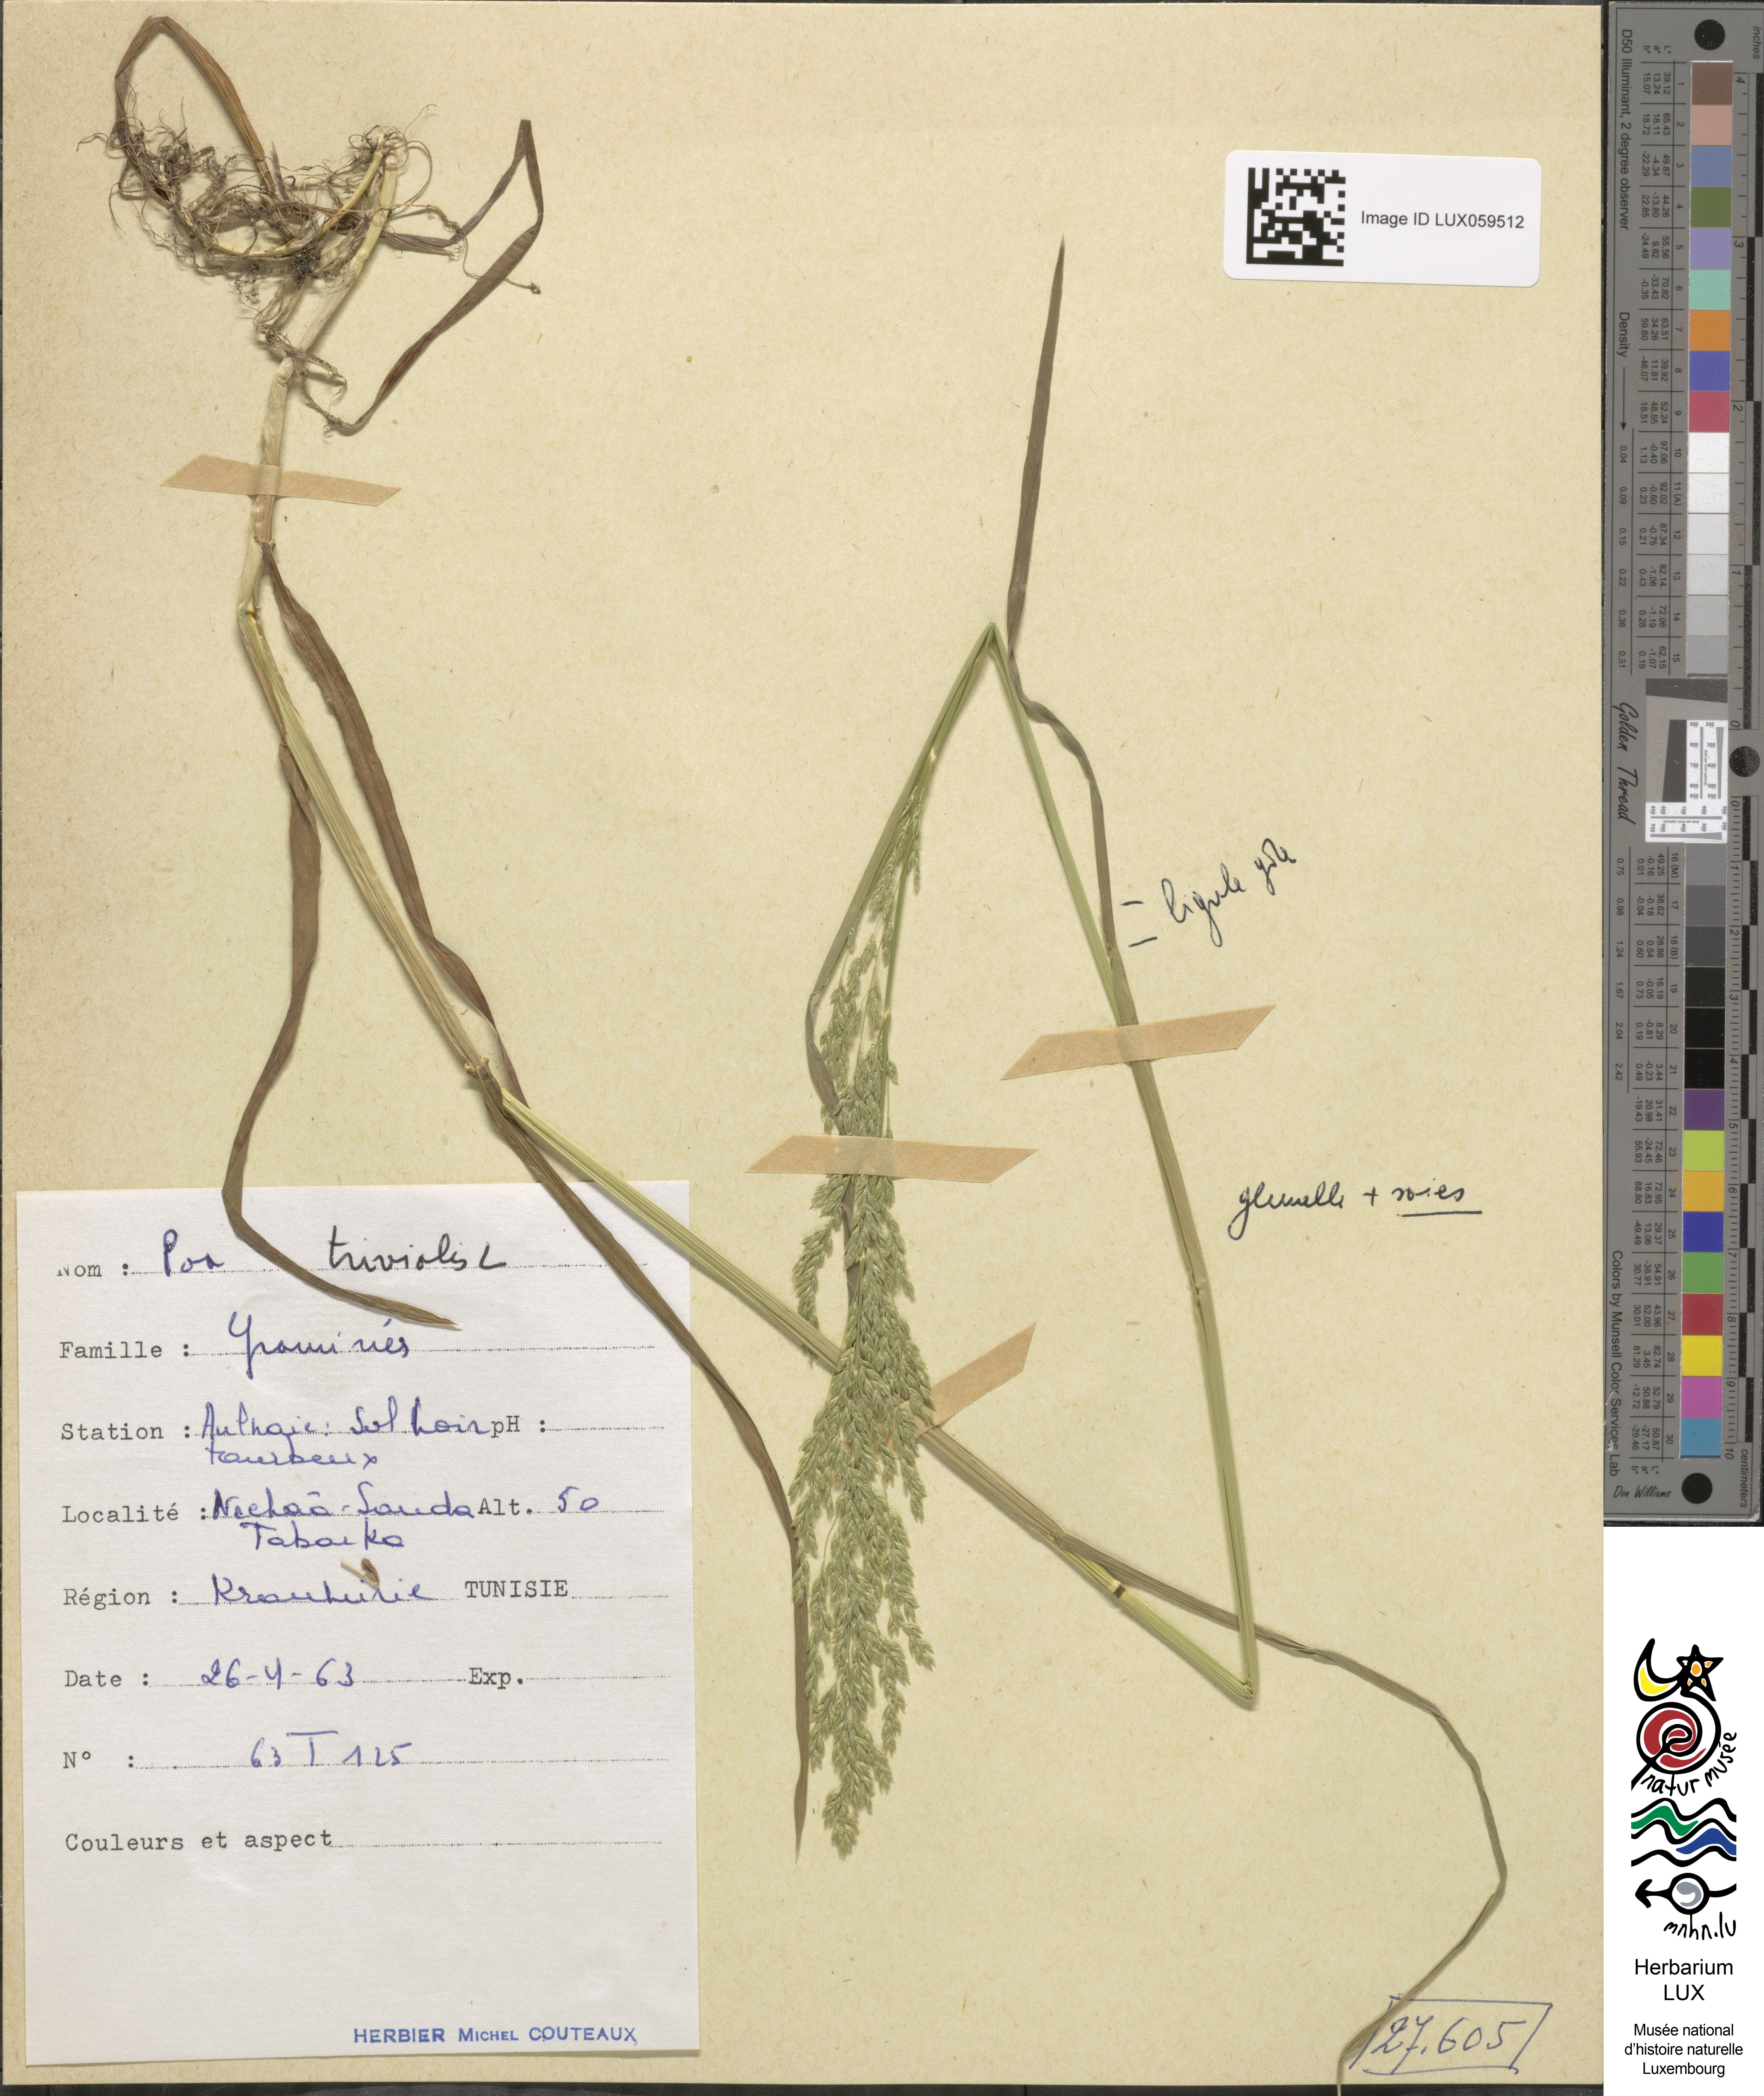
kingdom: Plantae
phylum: Tracheophyta
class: Liliopsida
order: Poales
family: Poaceae
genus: Poa
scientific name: Poa trivialis
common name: Rough bluegrass
